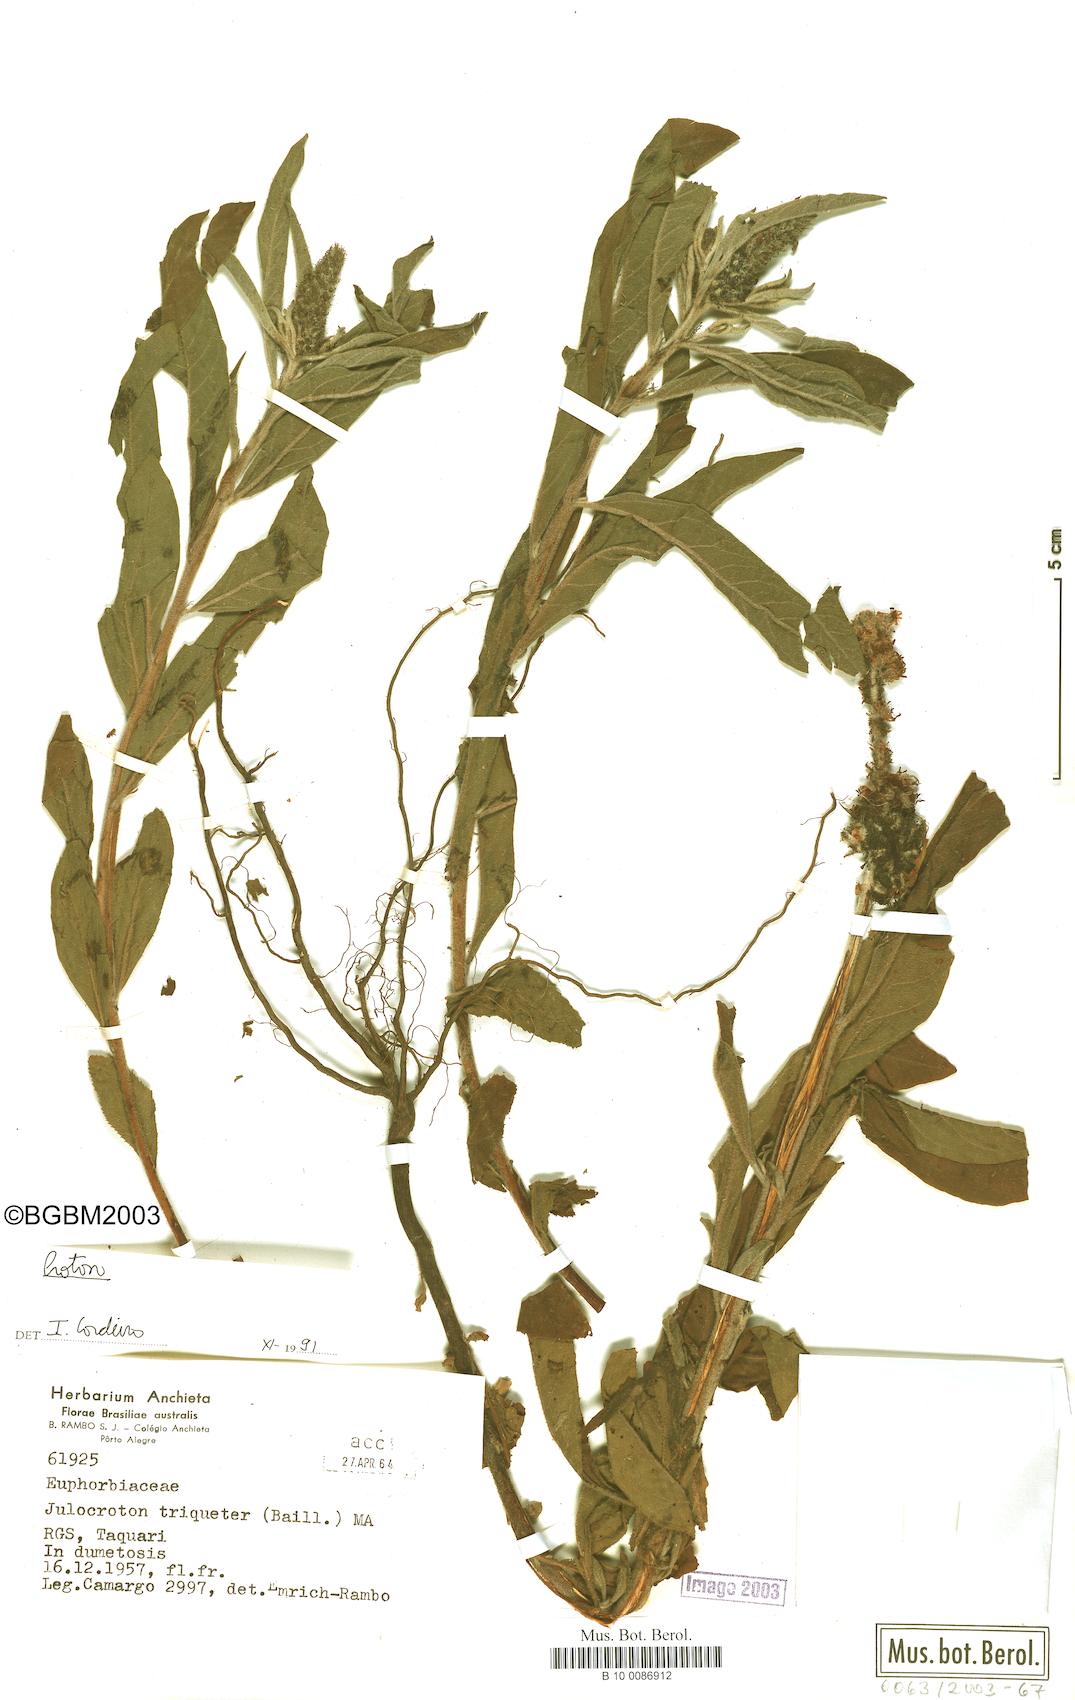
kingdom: Plantae
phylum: Tracheophyta
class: Magnoliopsida
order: Malpighiales
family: Euphorbiaceae
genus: Croton
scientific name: Croton
